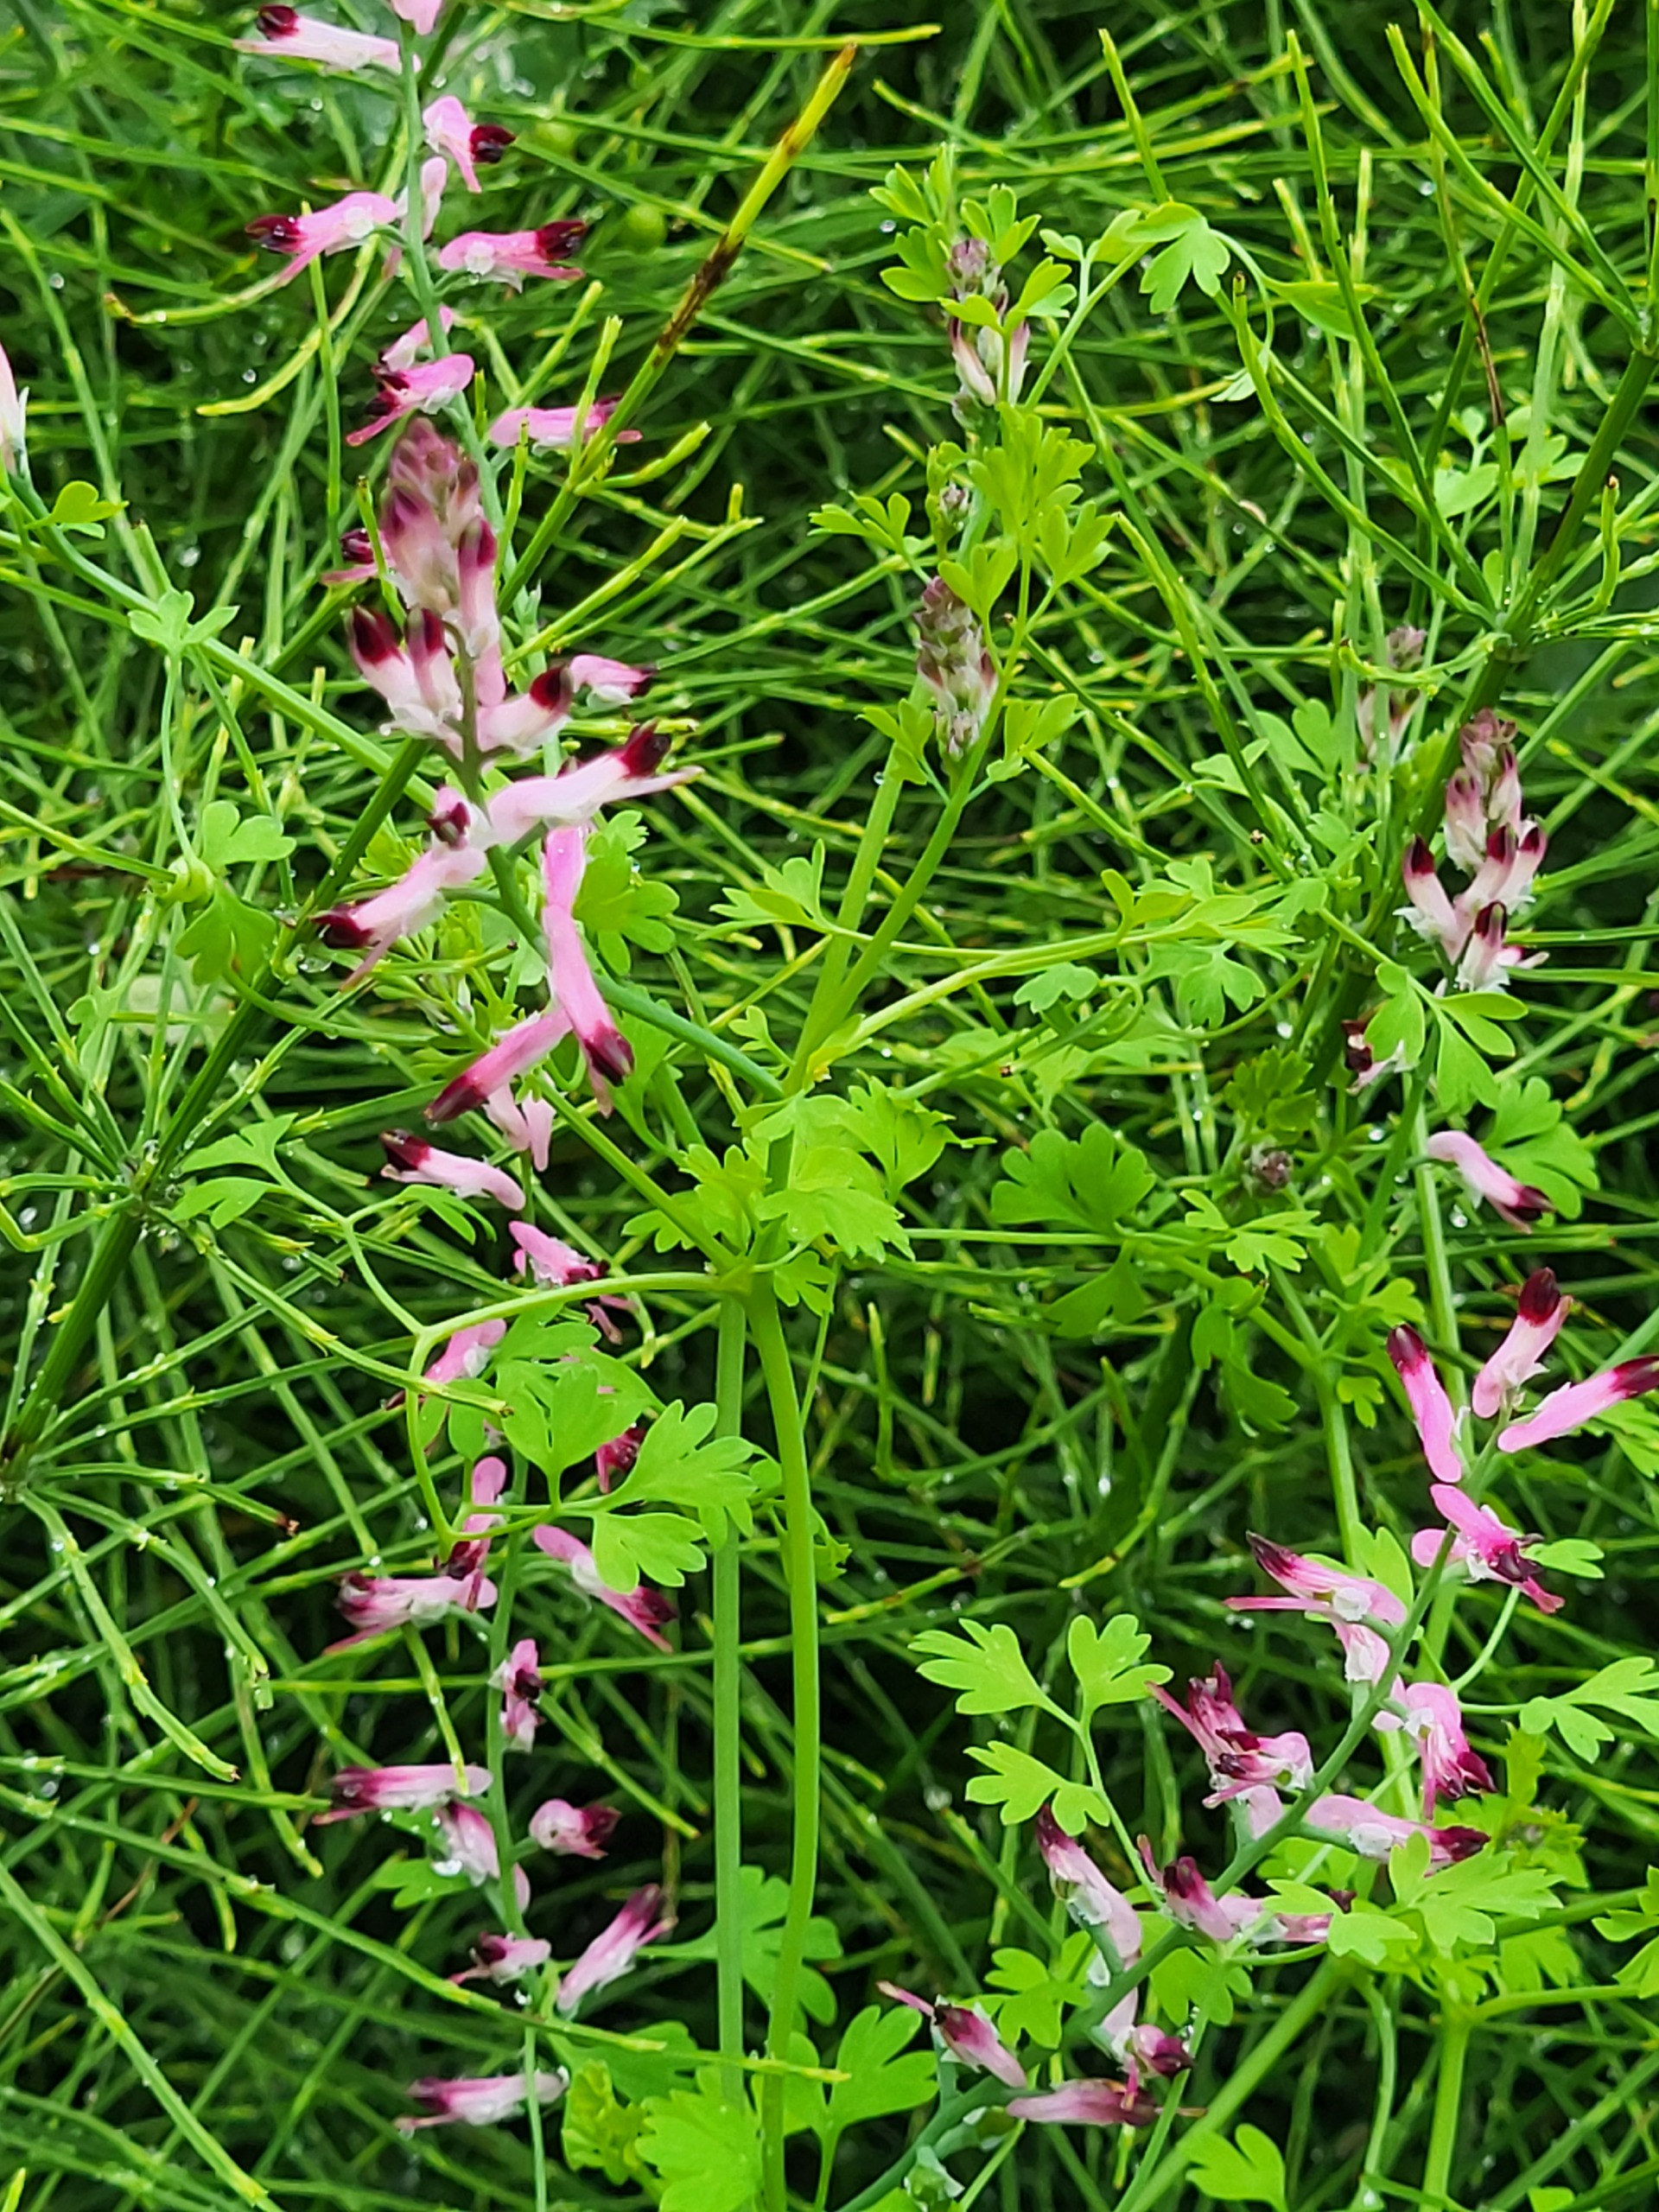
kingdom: Plantae
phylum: Tracheophyta
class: Magnoliopsida
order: Ranunculales
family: Papaveraceae
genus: Fumaria
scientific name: Fumaria muralis
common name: Mur-jordrøg
